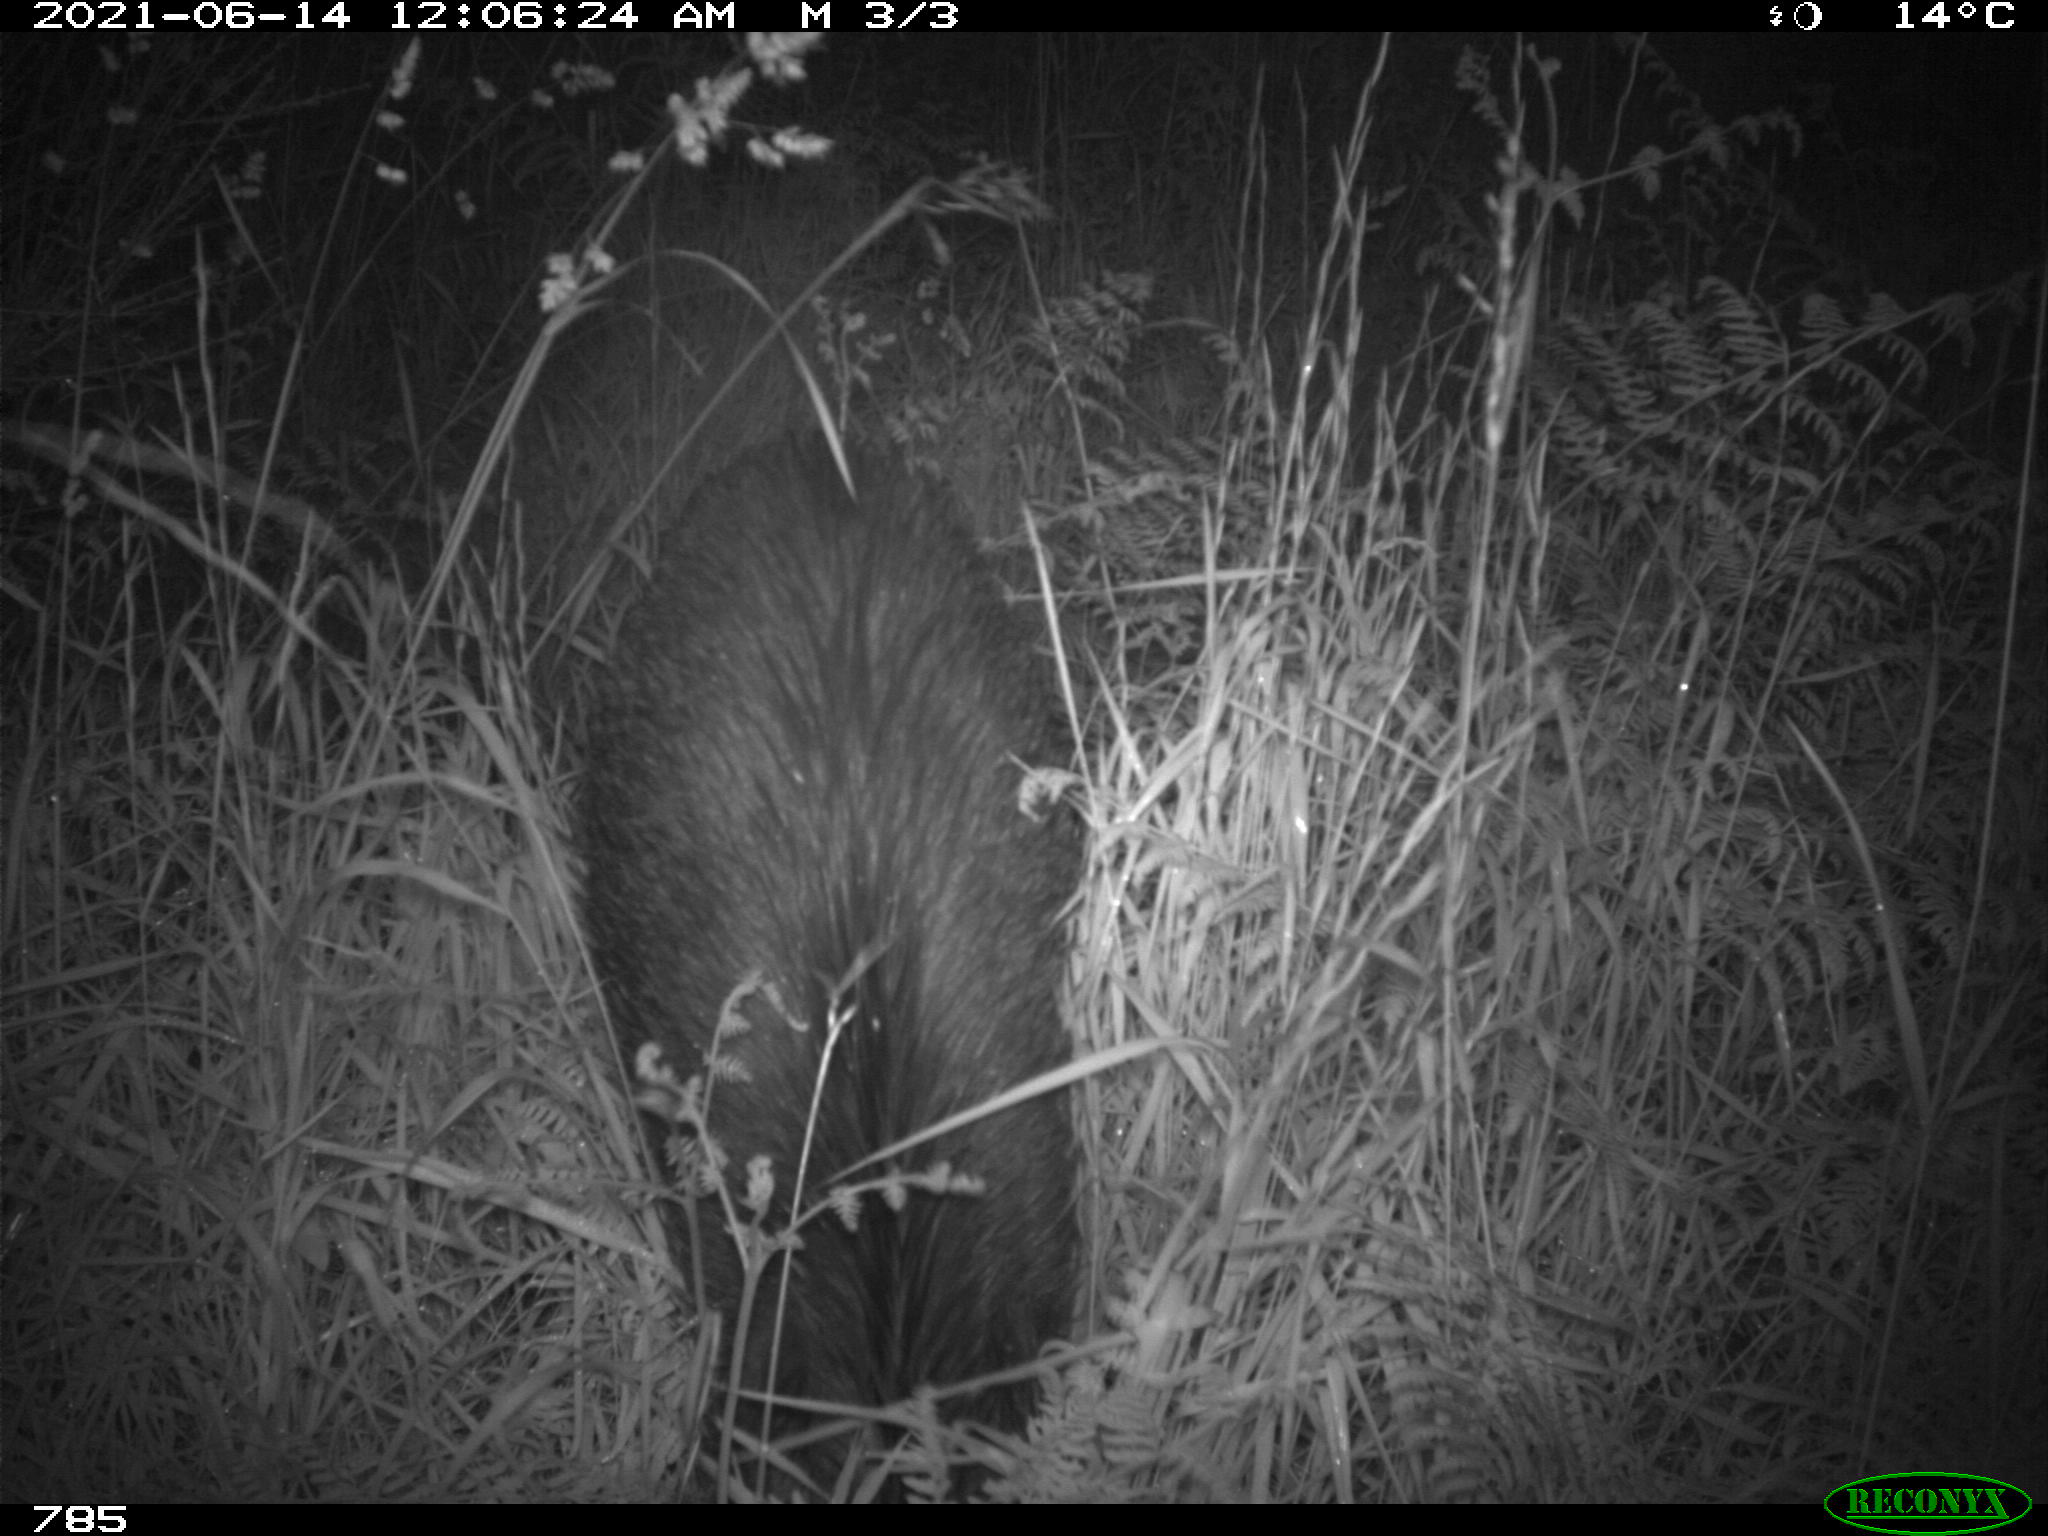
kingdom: Animalia
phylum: Chordata
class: Mammalia
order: Artiodactyla
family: Suidae
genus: Sus
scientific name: Sus scrofa
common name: Wild boar
